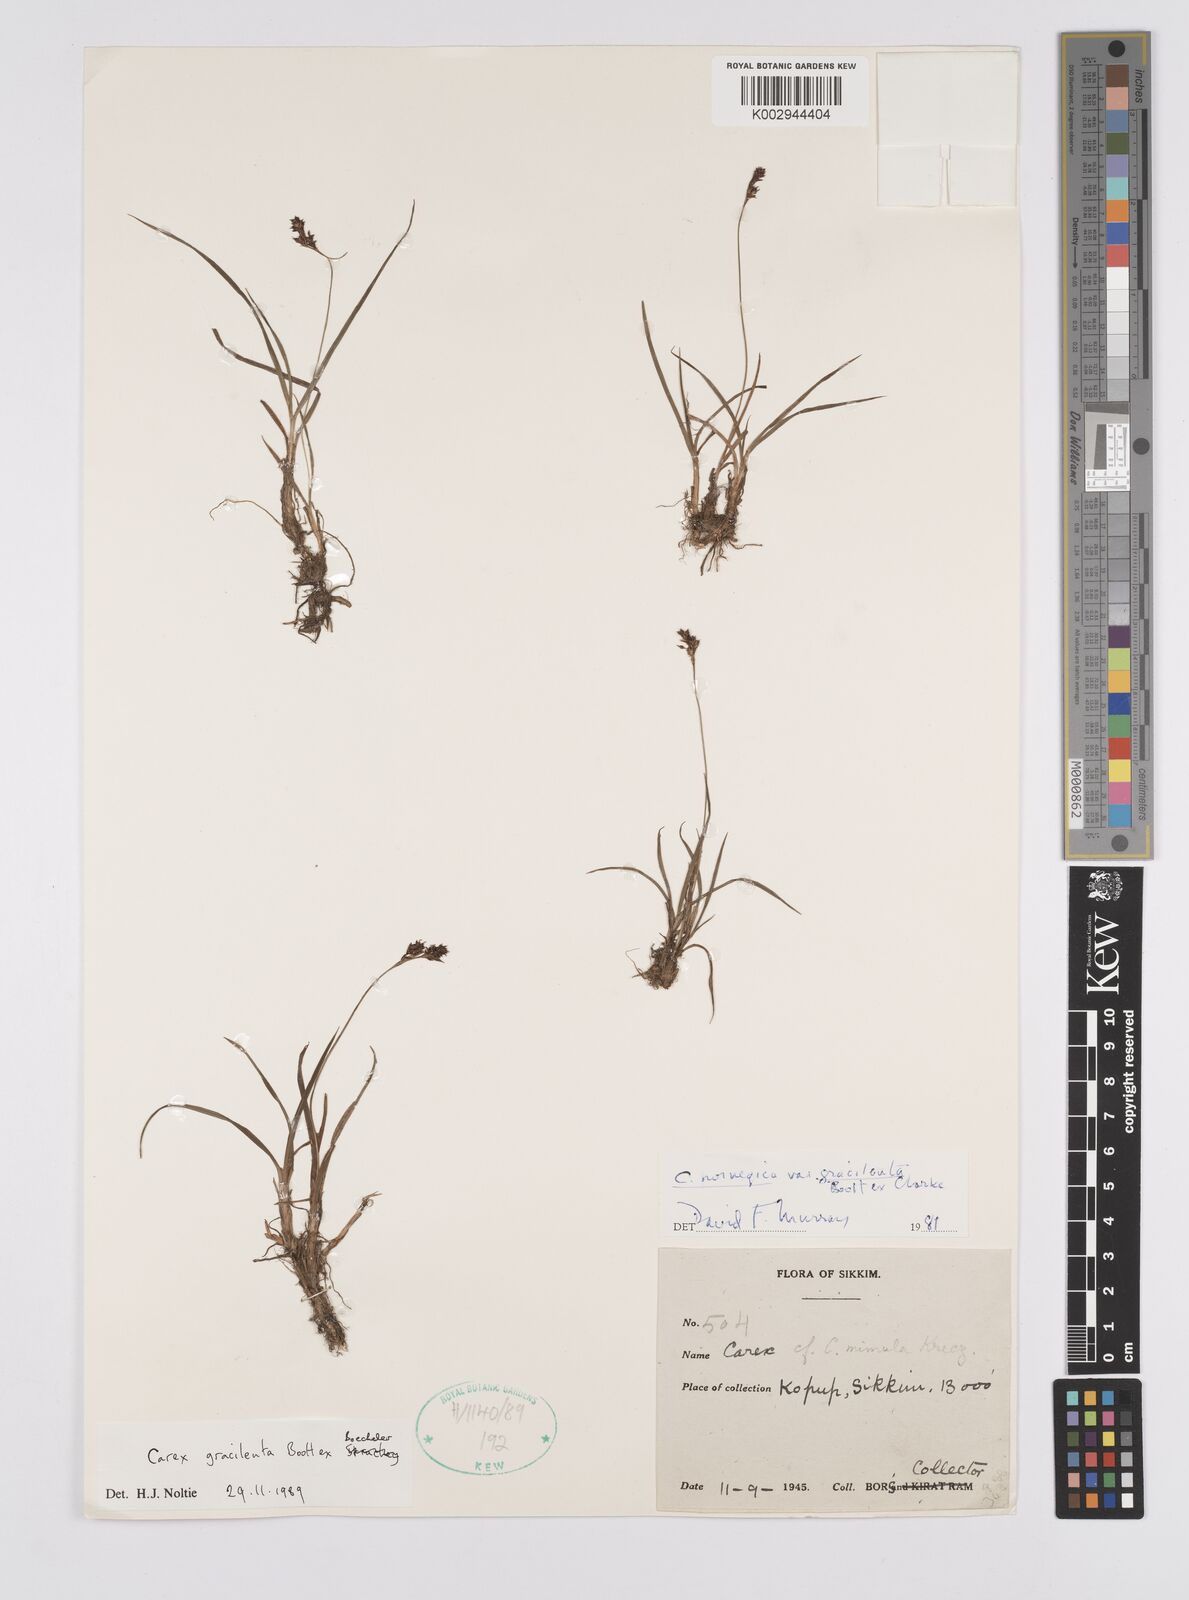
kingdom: Plantae
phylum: Tracheophyta
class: Liliopsida
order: Poales
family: Cyperaceae
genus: Carex
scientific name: Carex norvegica
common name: Close-headed alpine-sedge
